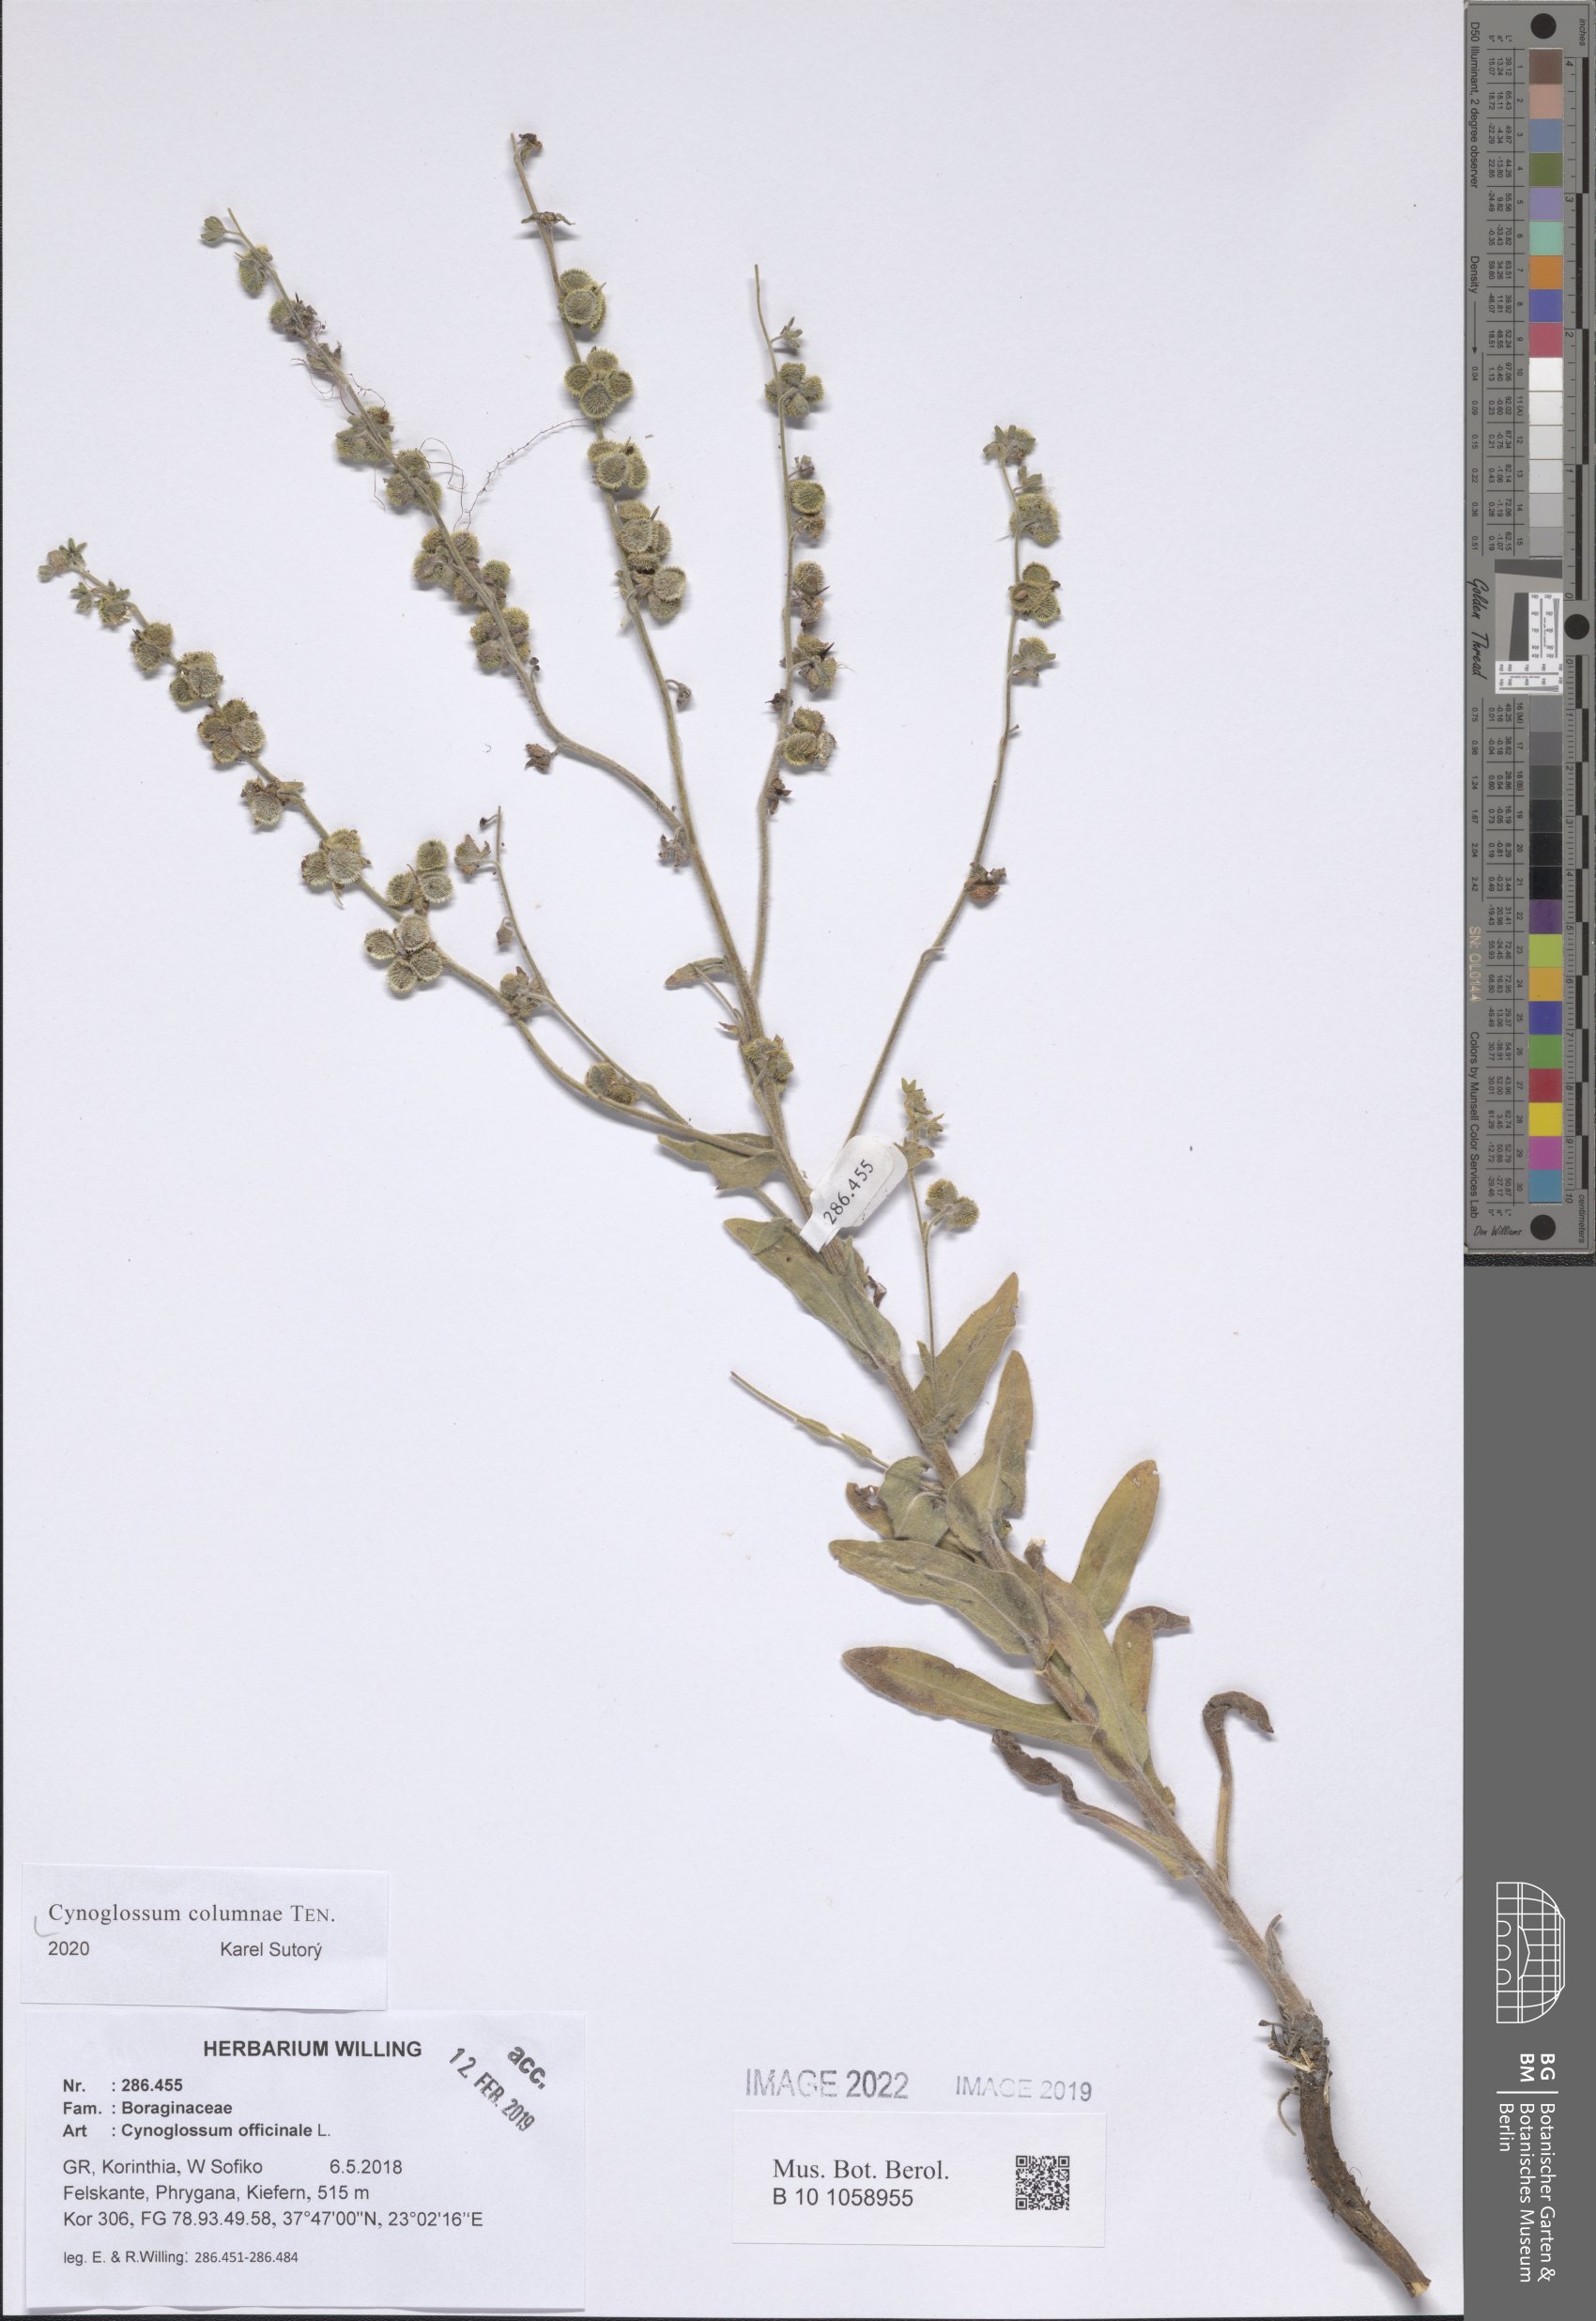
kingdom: Plantae
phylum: Tracheophyta
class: Magnoliopsida
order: Boraginales
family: Boraginaceae
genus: Rindera
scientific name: Rindera columnae
